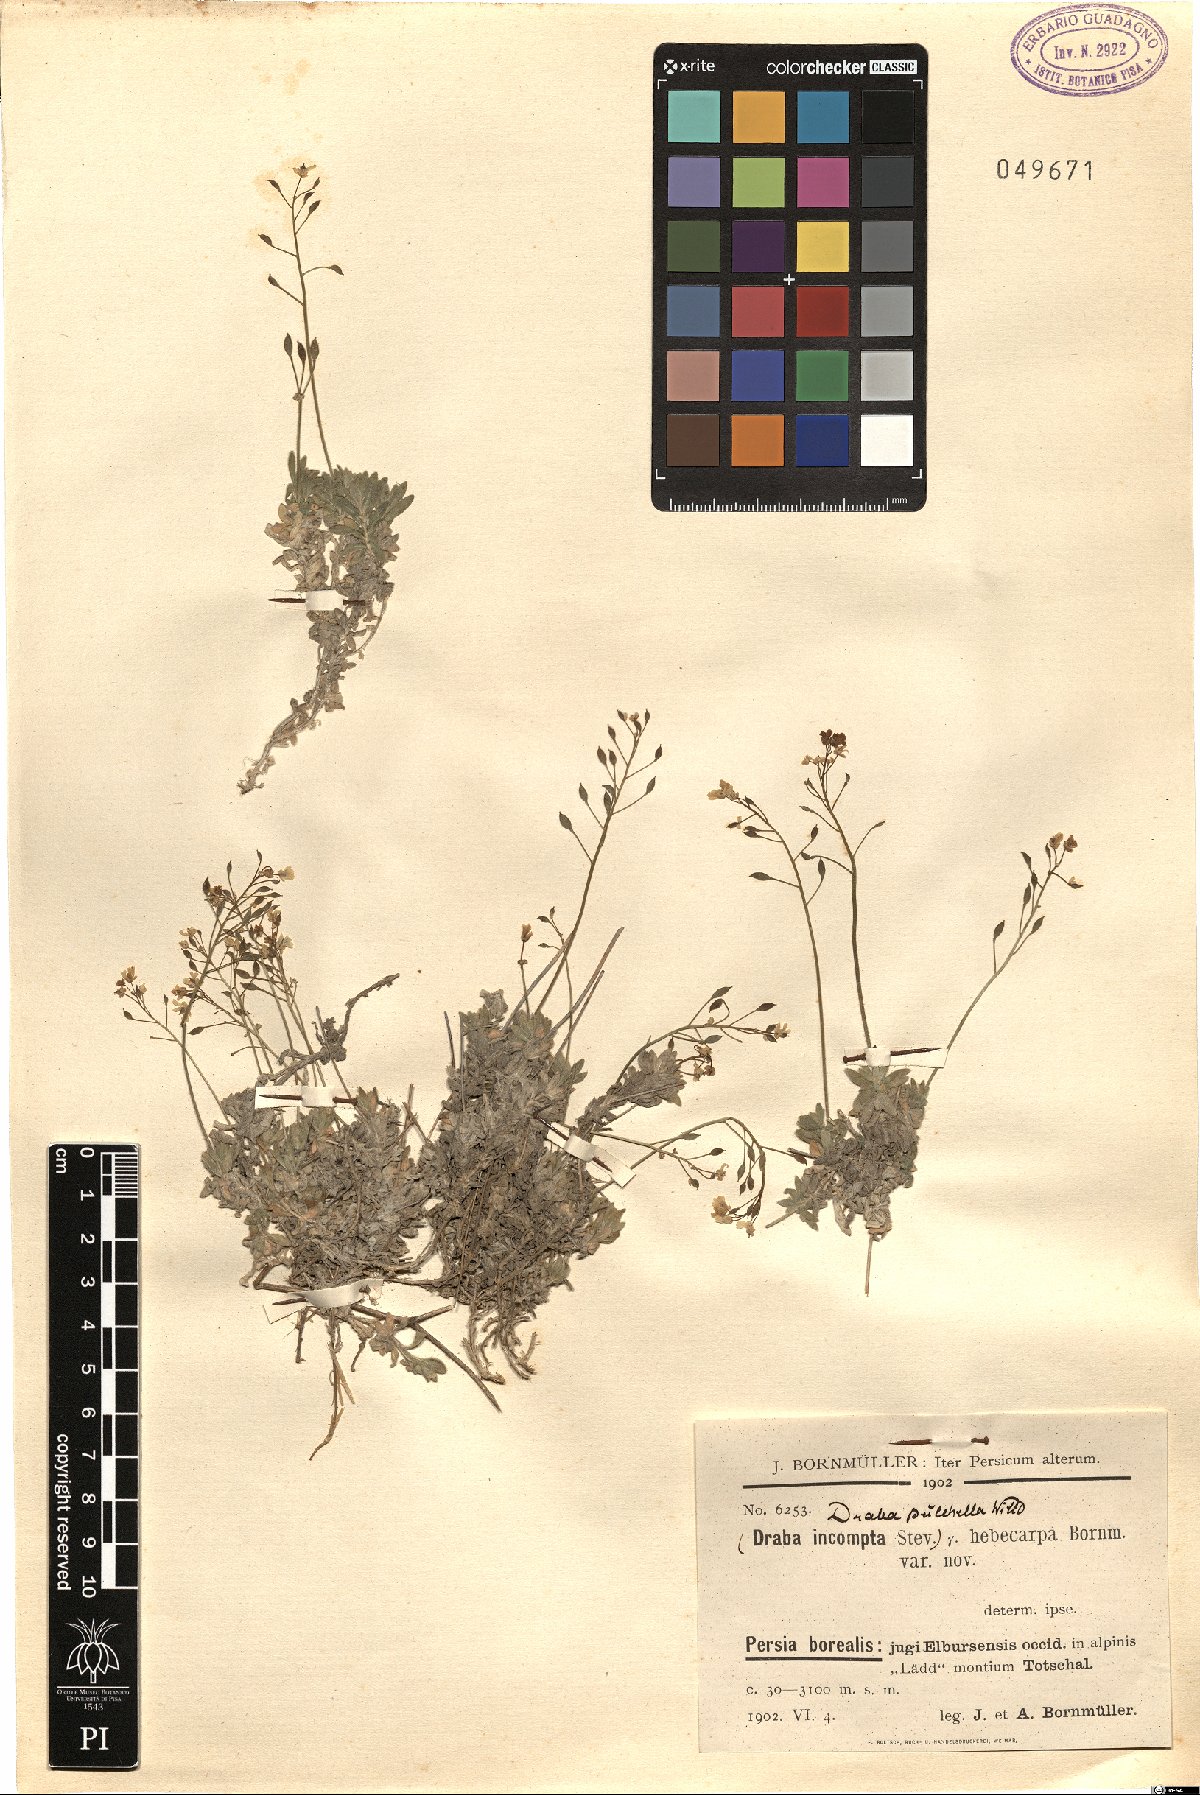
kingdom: Plantae
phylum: Tracheophyta
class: Magnoliopsida
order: Brassicales
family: Brassicaceae
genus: Draba
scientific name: Draba pulchella
